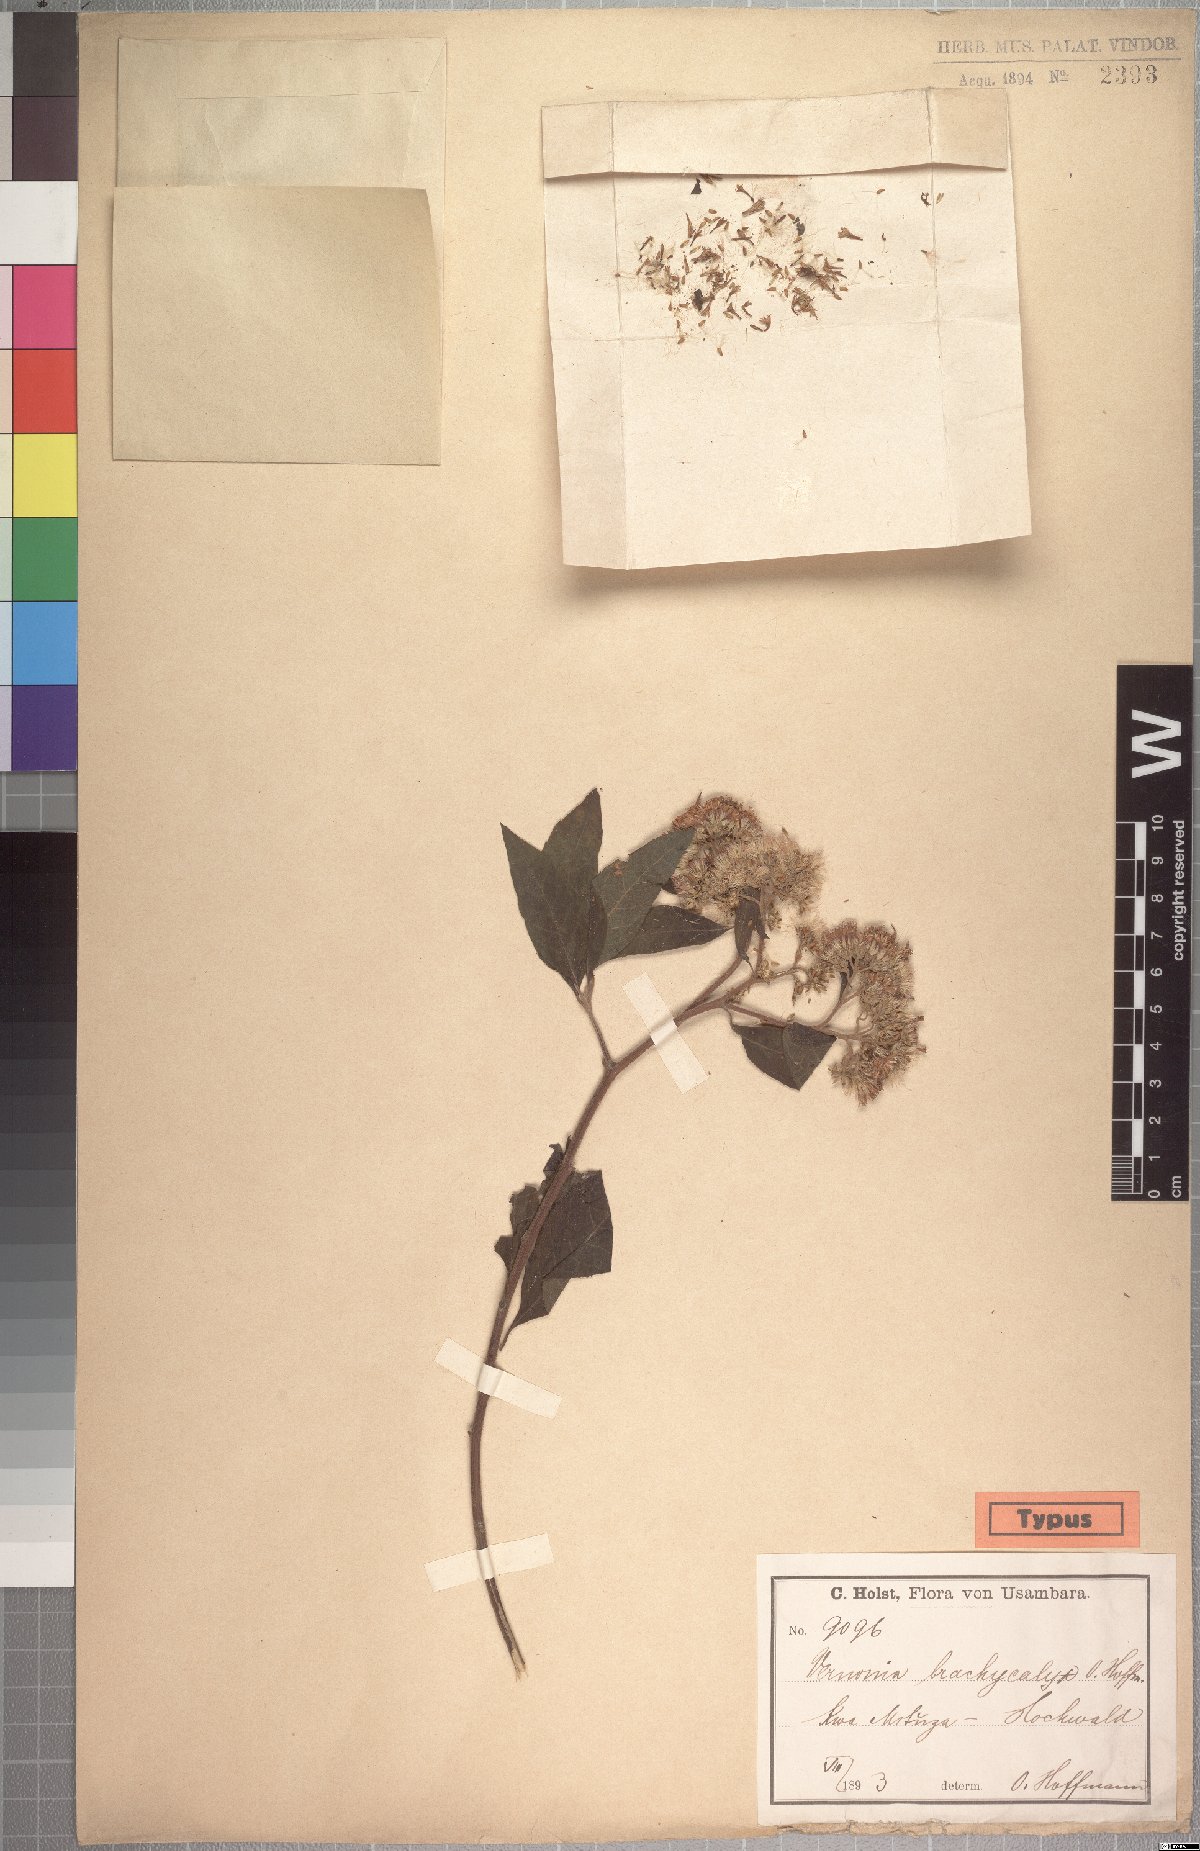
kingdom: Plantae
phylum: Tracheophyta
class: Magnoliopsida
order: Asterales
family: Asteraceae
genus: Hoffmannanthus
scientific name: Hoffmannanthus abbotianus
